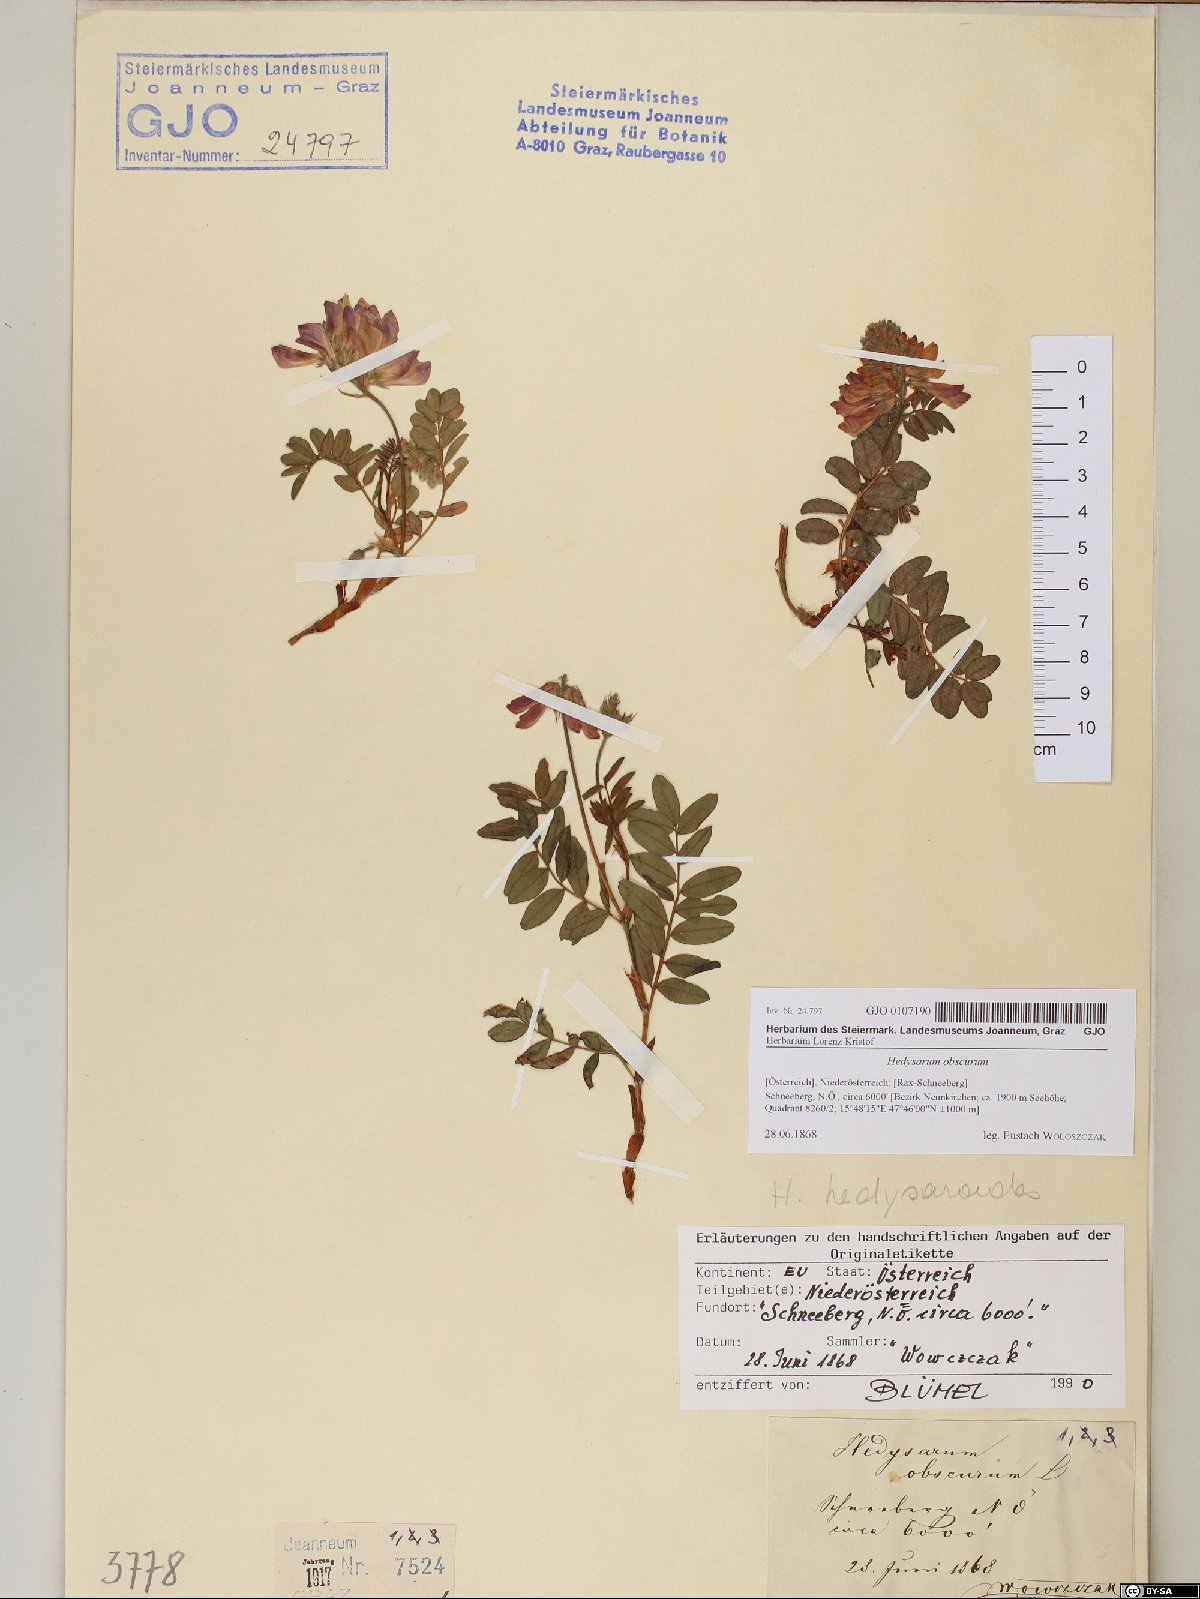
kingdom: Plantae
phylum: Tracheophyta
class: Magnoliopsida
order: Fabales
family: Fabaceae
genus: Hedysarum
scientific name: Hedysarum hedysaroides
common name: Alpine french-honeysuckle
